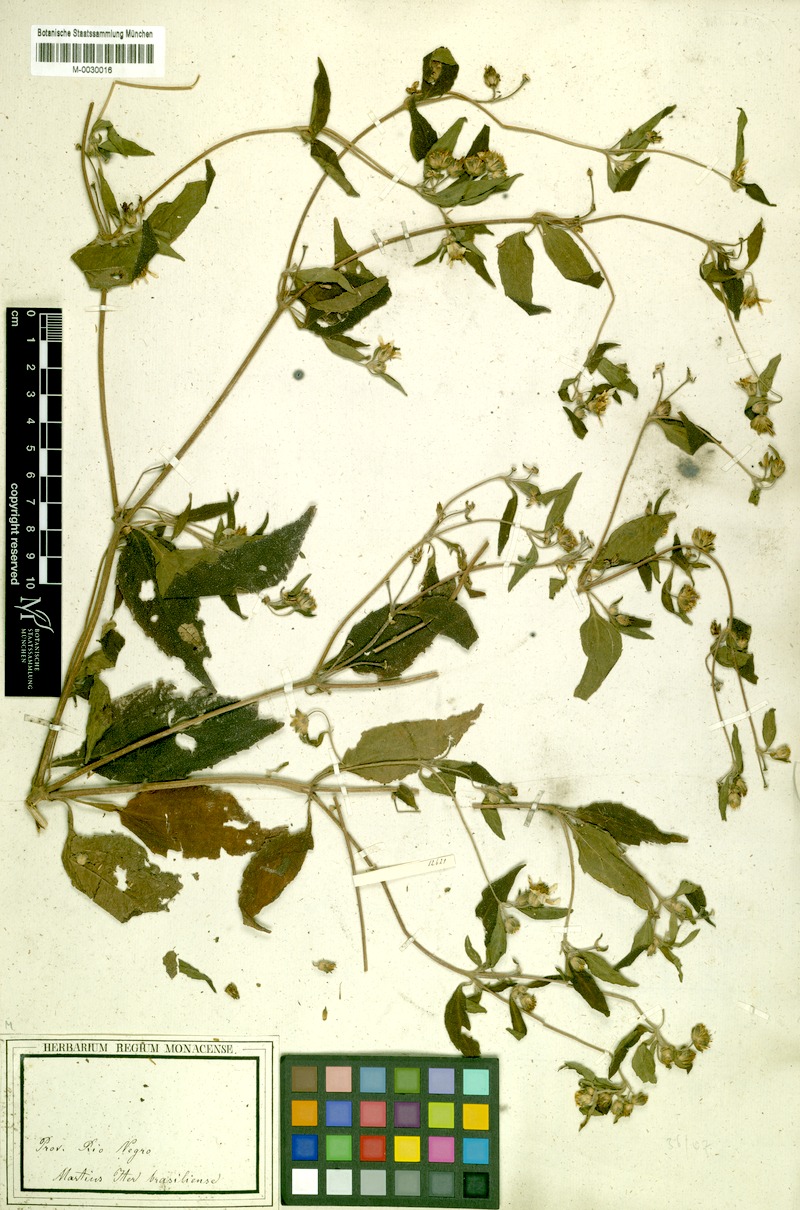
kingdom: Plantae
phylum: Tracheophyta
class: Magnoliopsida
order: Asterales
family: Asteraceae
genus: Wedelia
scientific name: Wedelia rudis
